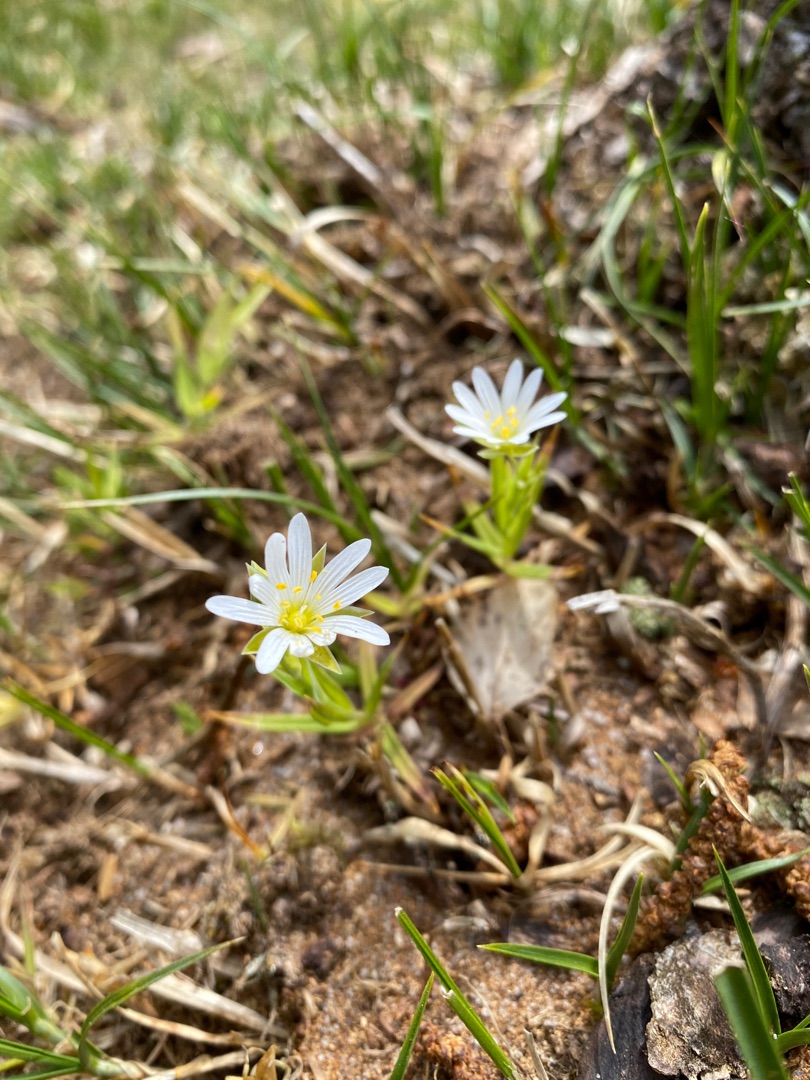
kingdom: Plantae
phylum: Tracheophyta
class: Magnoliopsida
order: Caryophyllales
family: Caryophyllaceae
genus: Rabelera
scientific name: Rabelera holostea
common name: Stor fladstjerne
